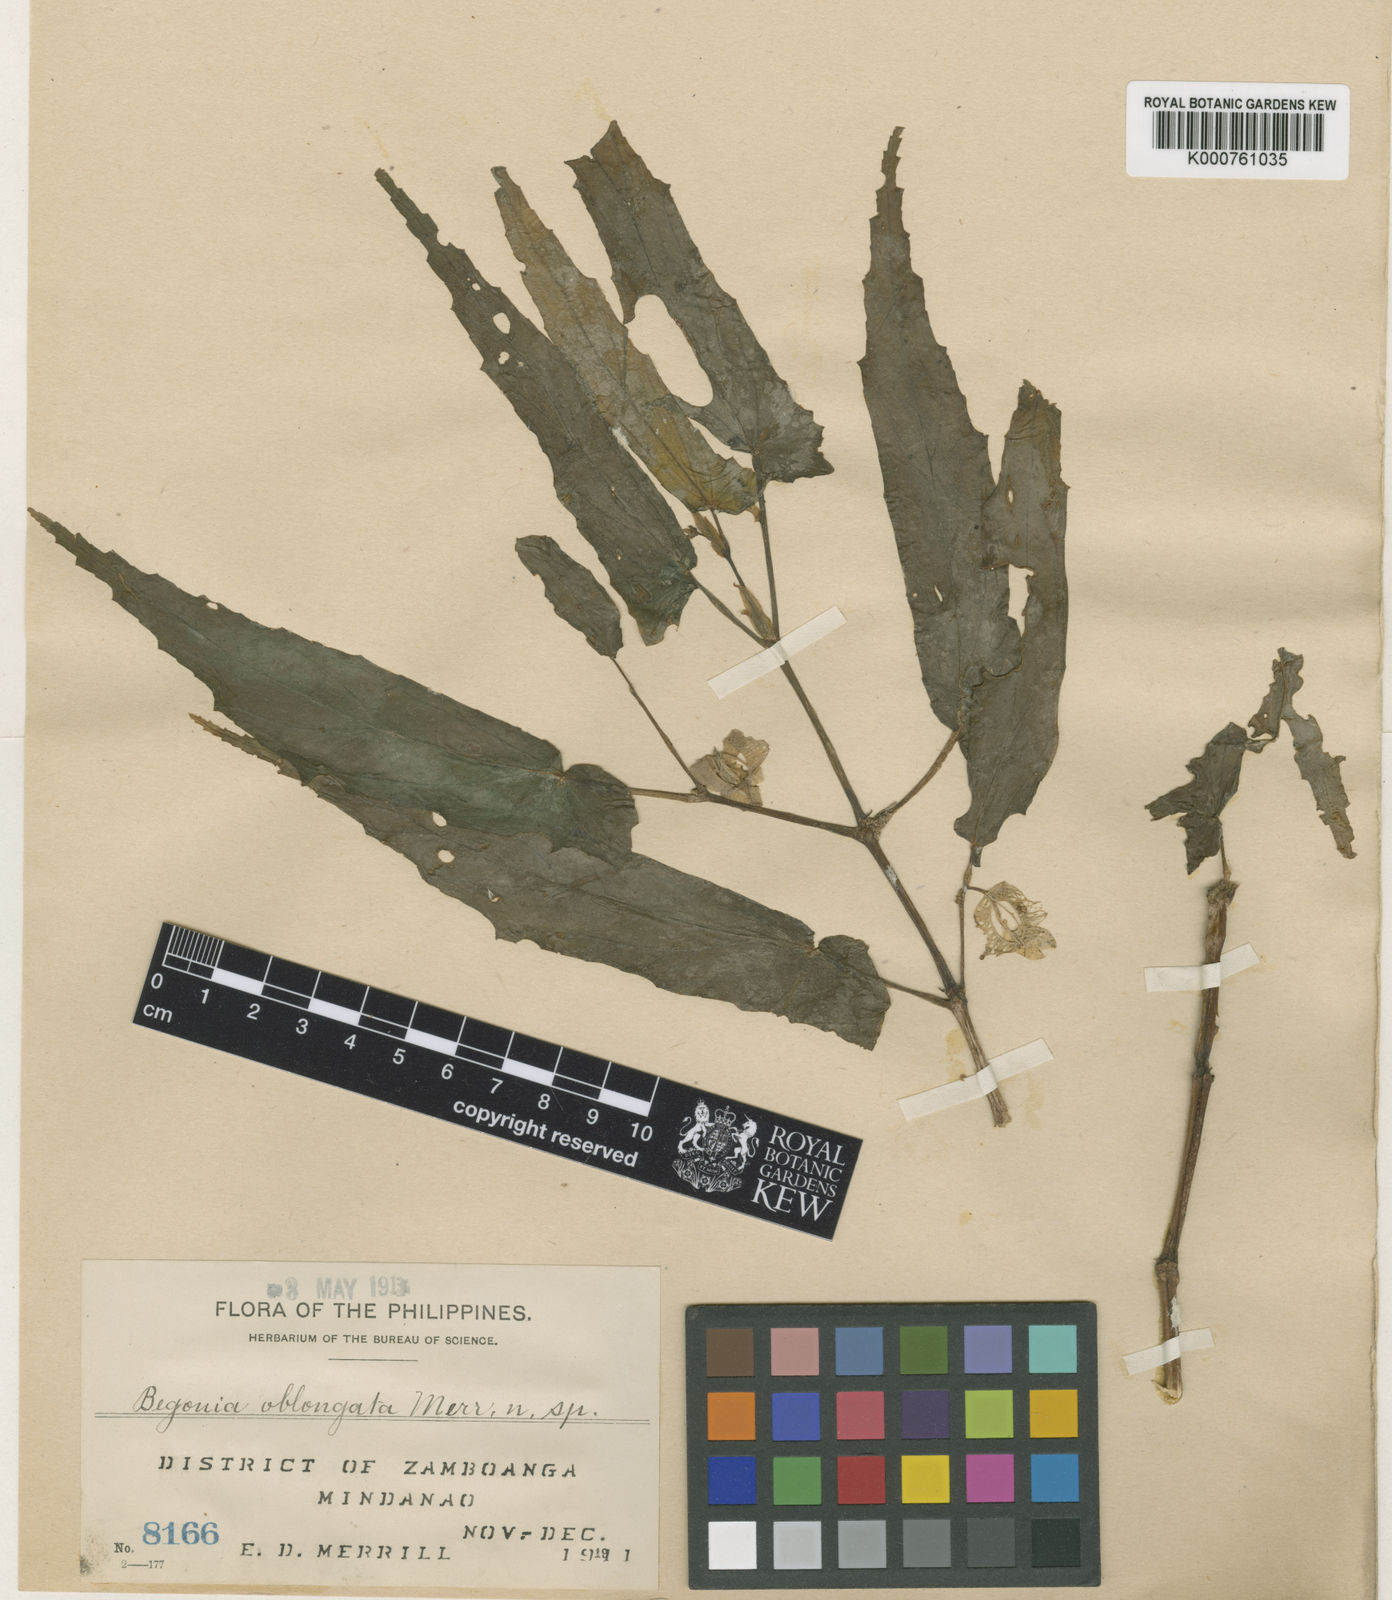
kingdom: Plantae
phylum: Tracheophyta
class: Magnoliopsida
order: Cucurbitales
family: Begoniaceae
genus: Begonia
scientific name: Begonia oblongata
